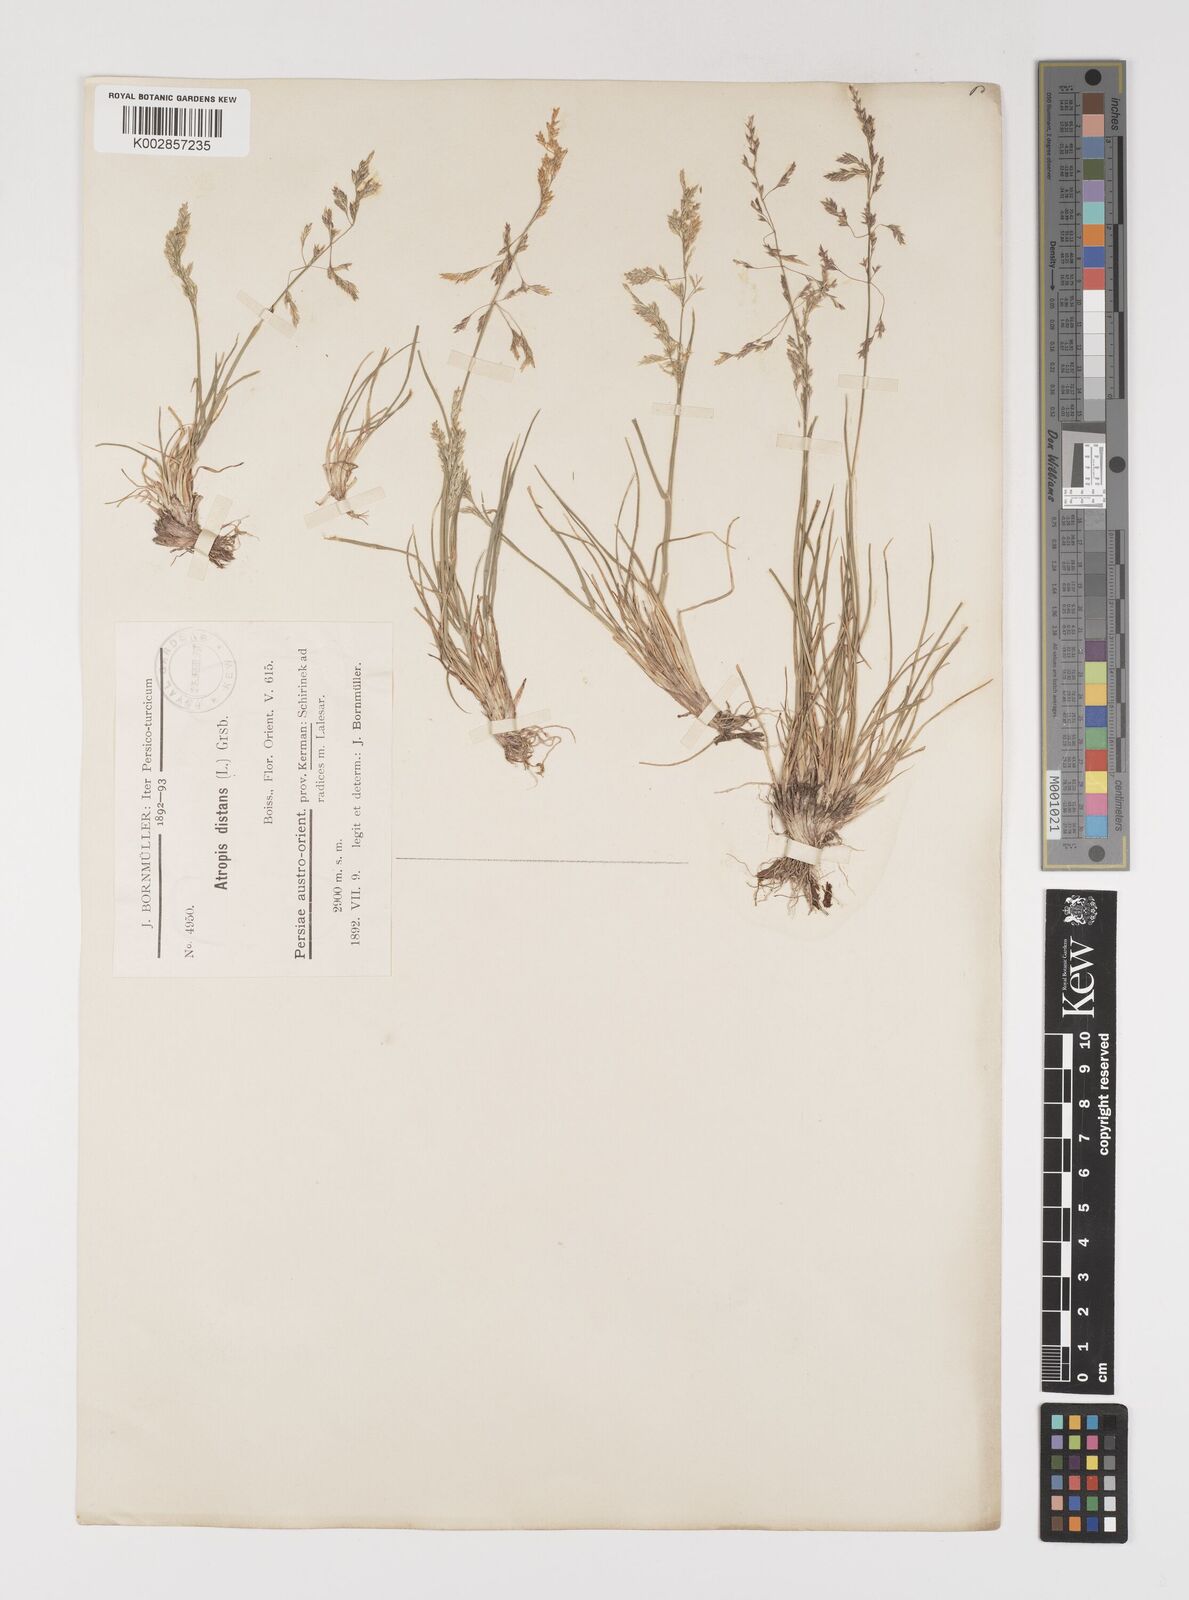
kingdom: Plantae
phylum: Tracheophyta
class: Liliopsida
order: Poales
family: Poaceae
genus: Puccinellia
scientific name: Puccinellia distans
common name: Weeping alkaligrass
